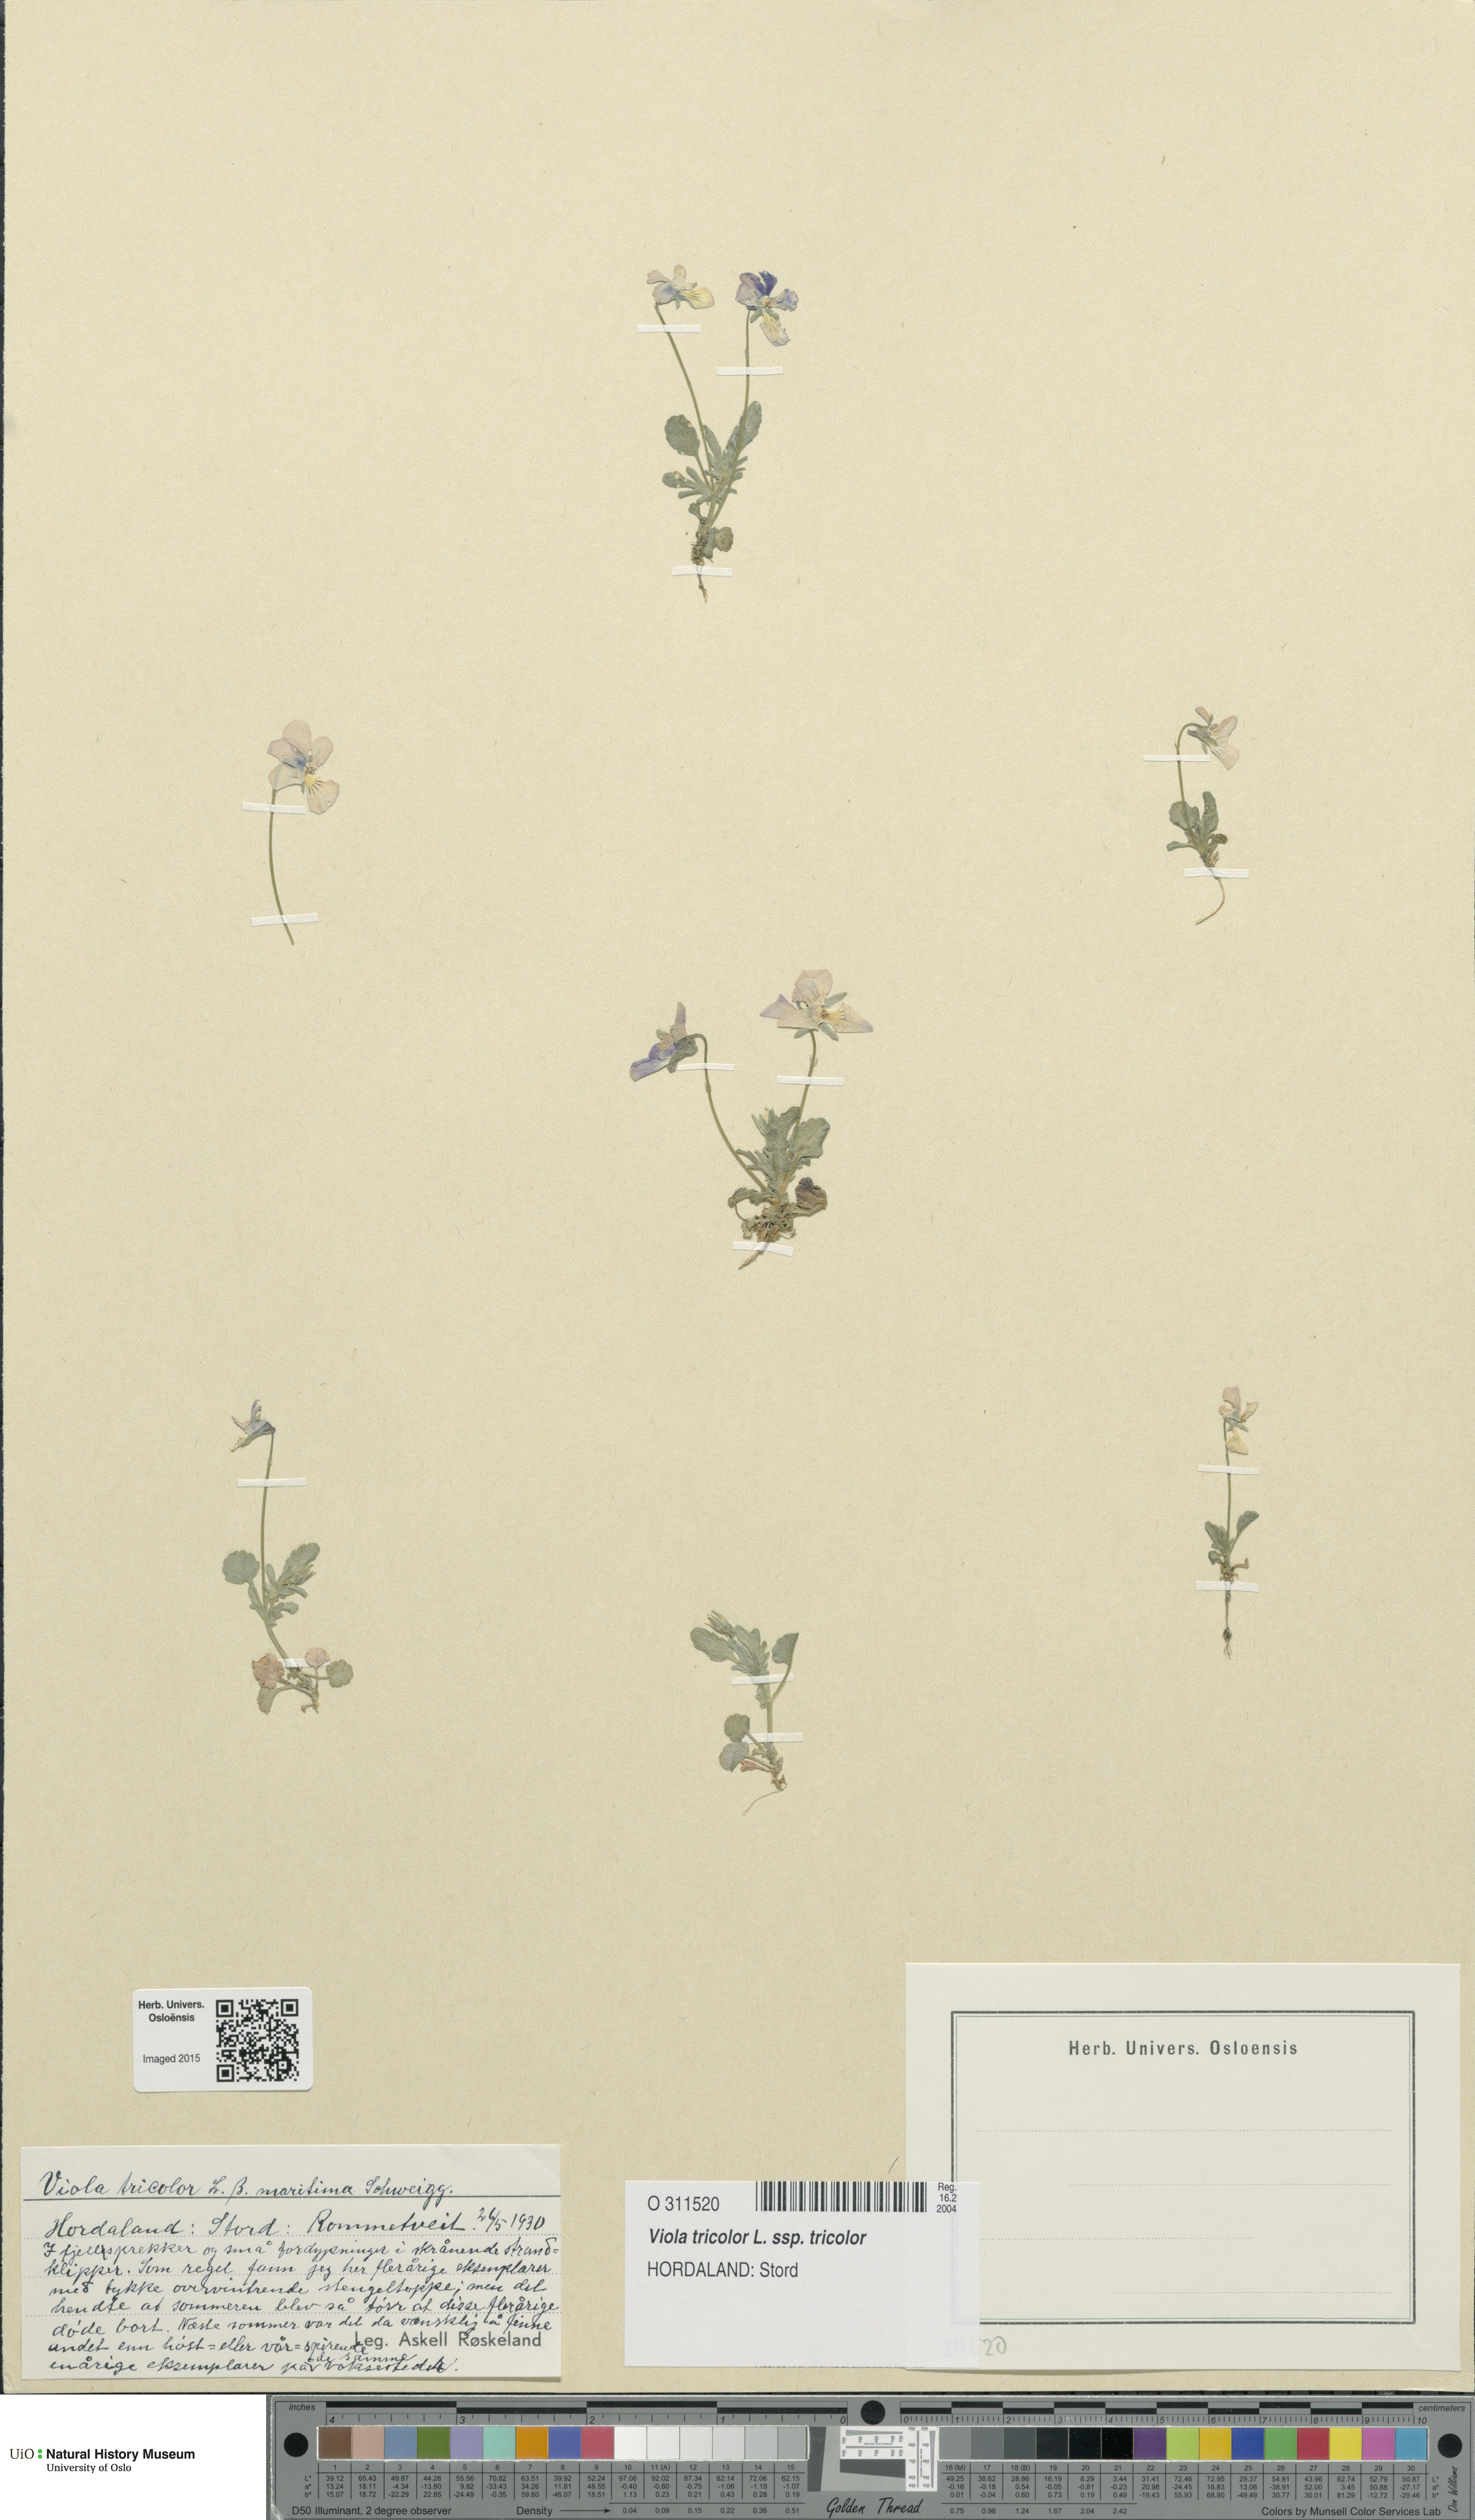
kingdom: Plantae
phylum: Tracheophyta
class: Magnoliopsida
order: Malpighiales
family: Violaceae
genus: Viola
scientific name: Viola tricolor
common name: Pansy
